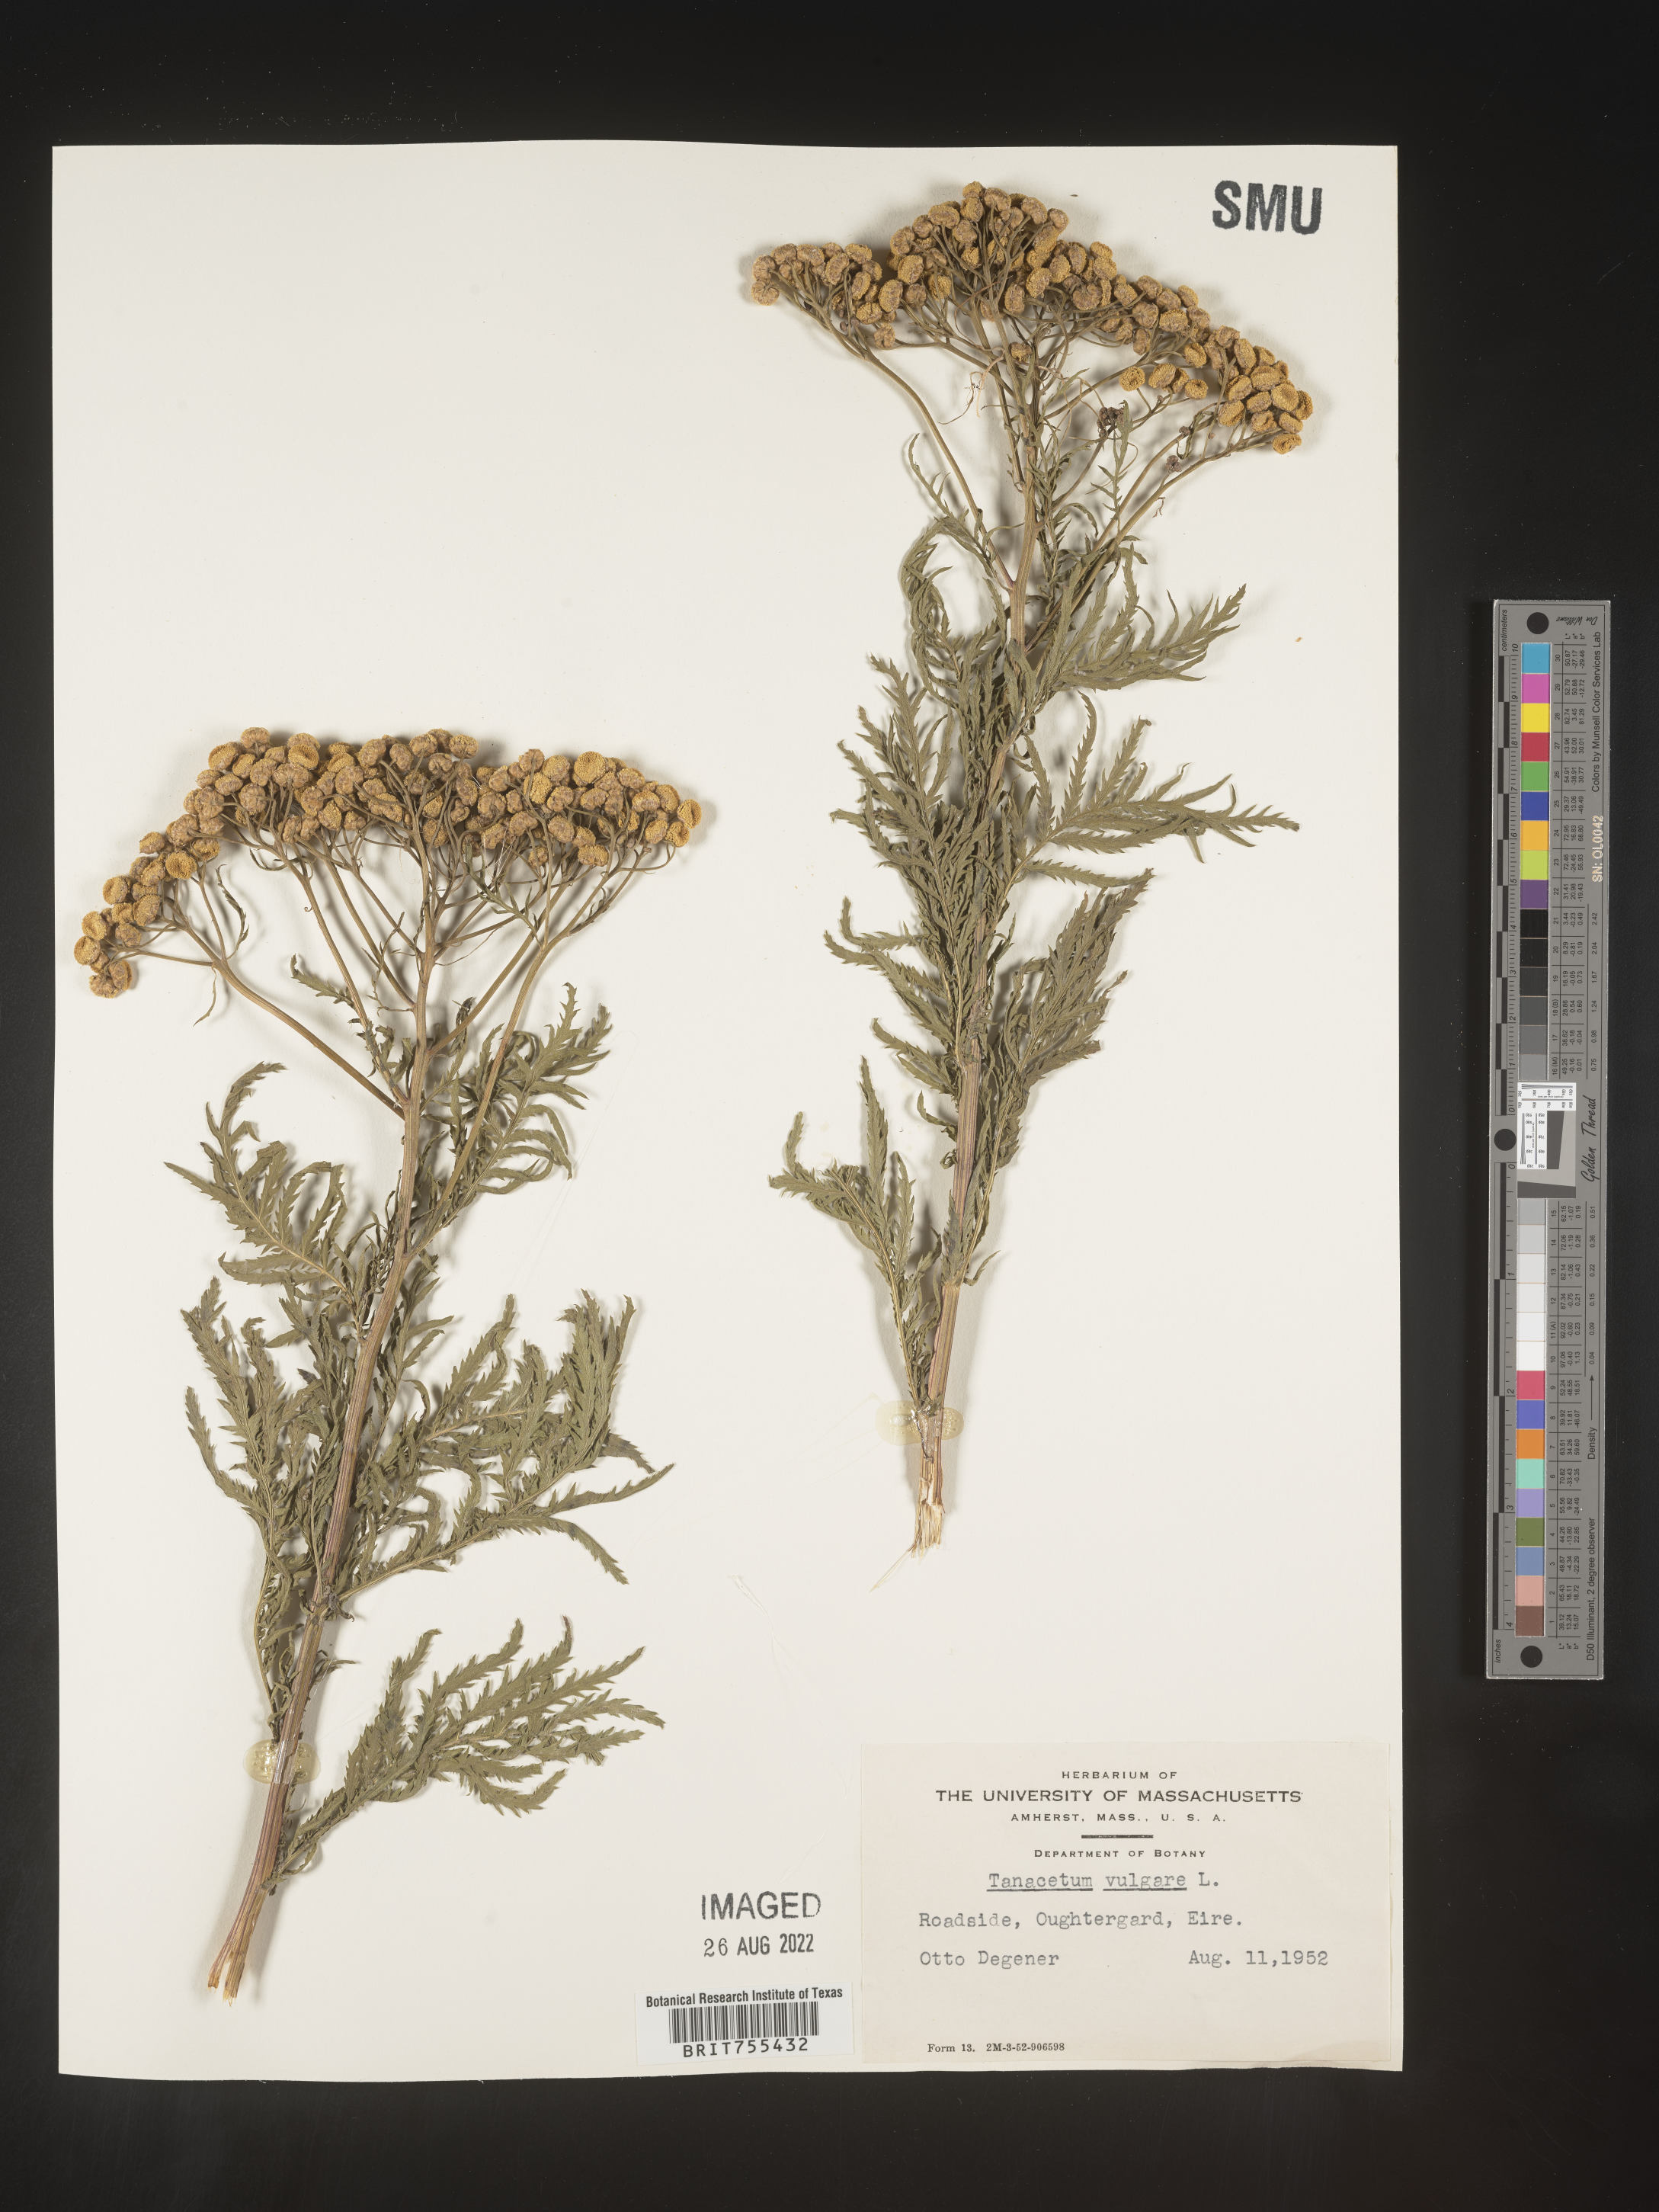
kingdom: Plantae
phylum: Tracheophyta
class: Magnoliopsida
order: Asterales
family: Asteraceae
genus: Tanacetum
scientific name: Tanacetum
